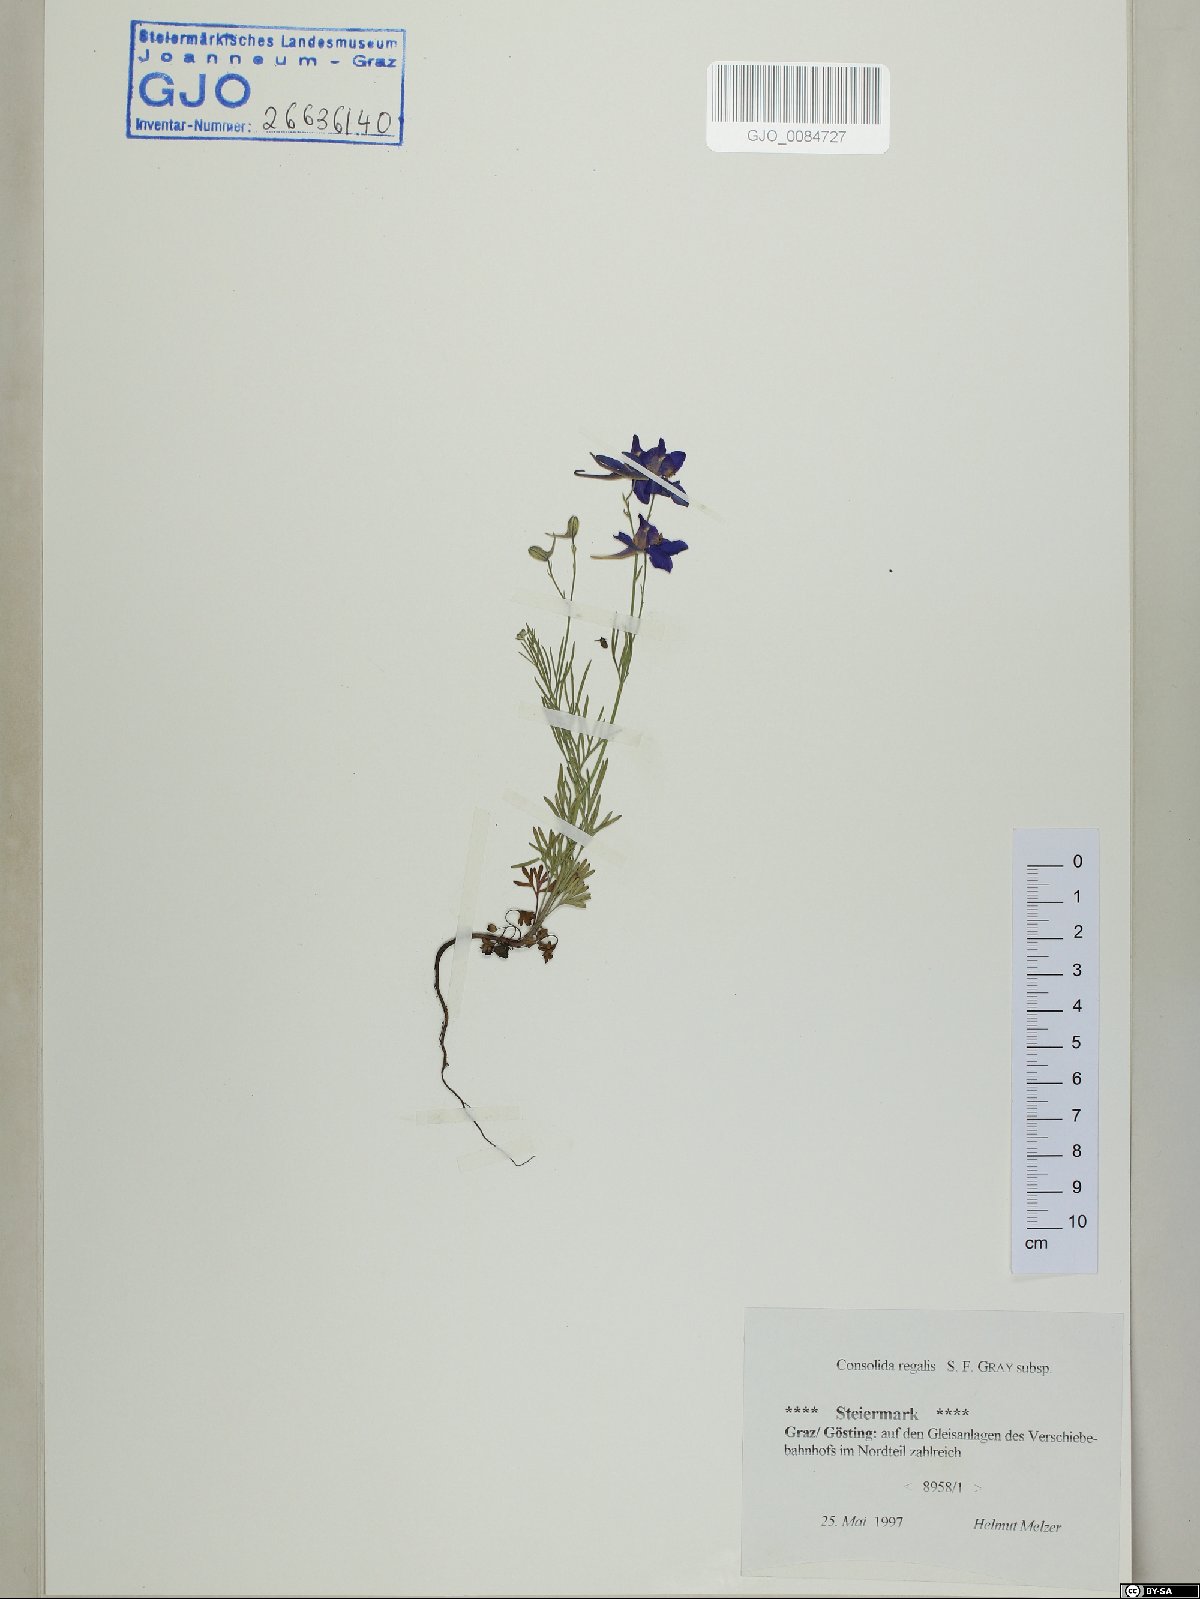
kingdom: Plantae
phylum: Tracheophyta
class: Magnoliopsida
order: Ranunculales
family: Ranunculaceae
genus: Delphinium
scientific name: Delphinium consolida
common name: Branching larkspur
